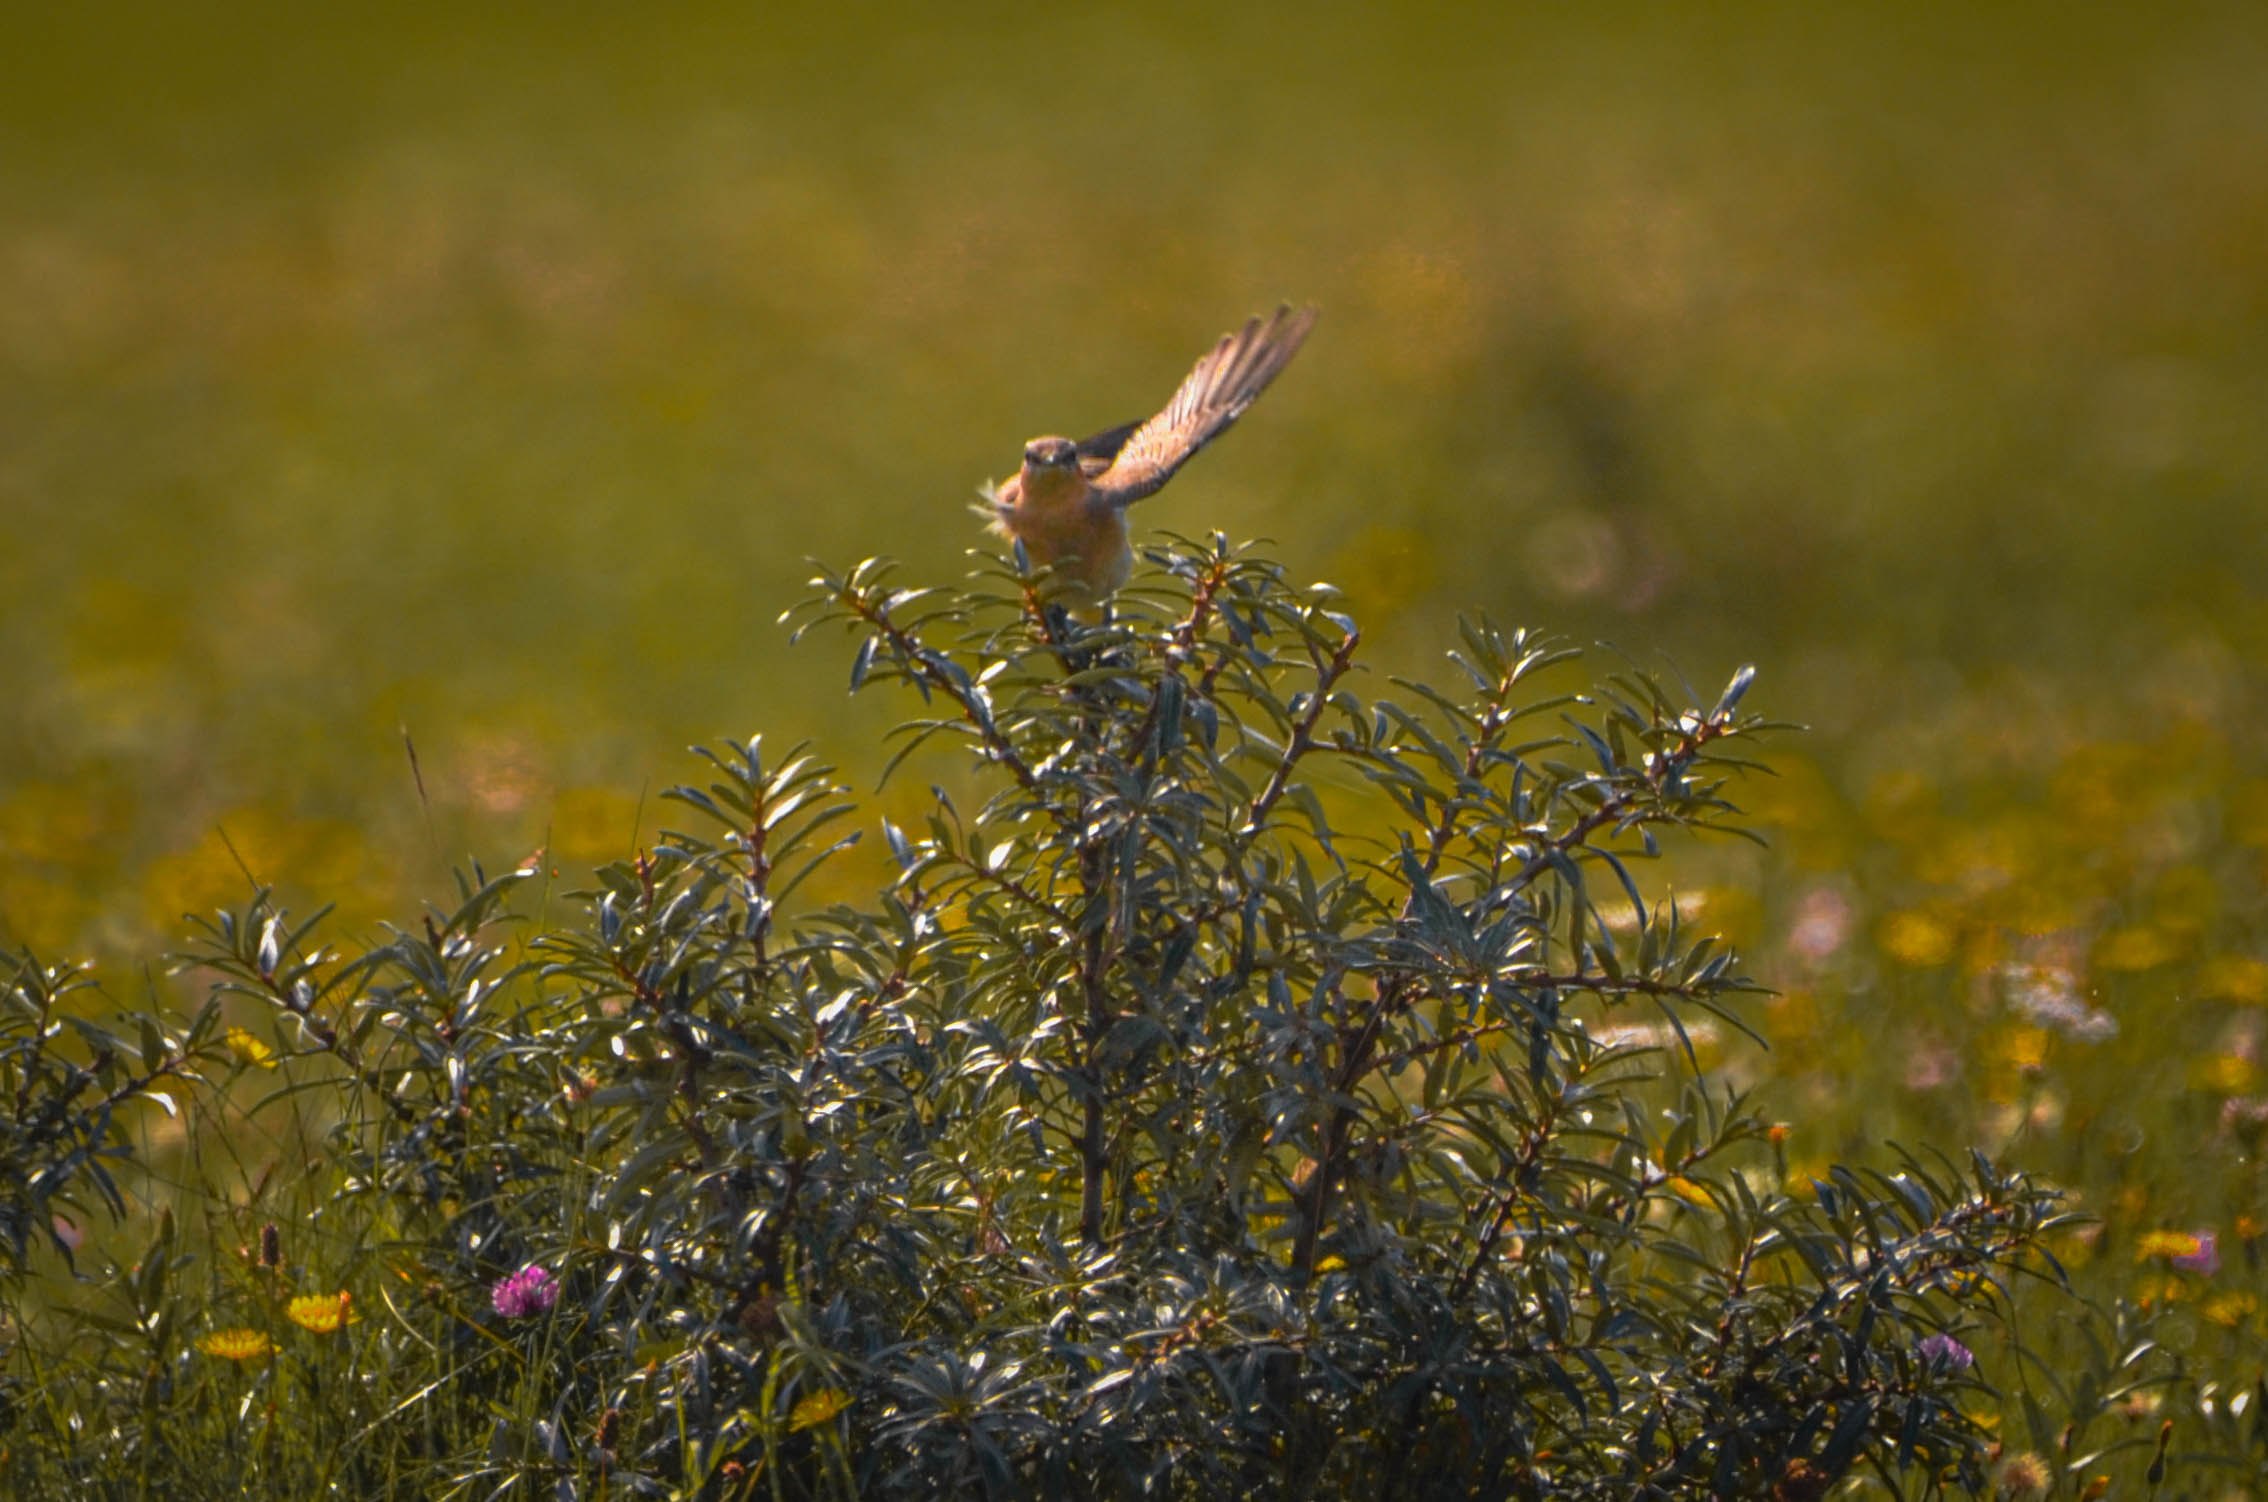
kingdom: Animalia
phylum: Chordata
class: Aves
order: Passeriformes
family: Muscicapidae
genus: Oenanthe
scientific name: Oenanthe oenanthe
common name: Stenpikker
